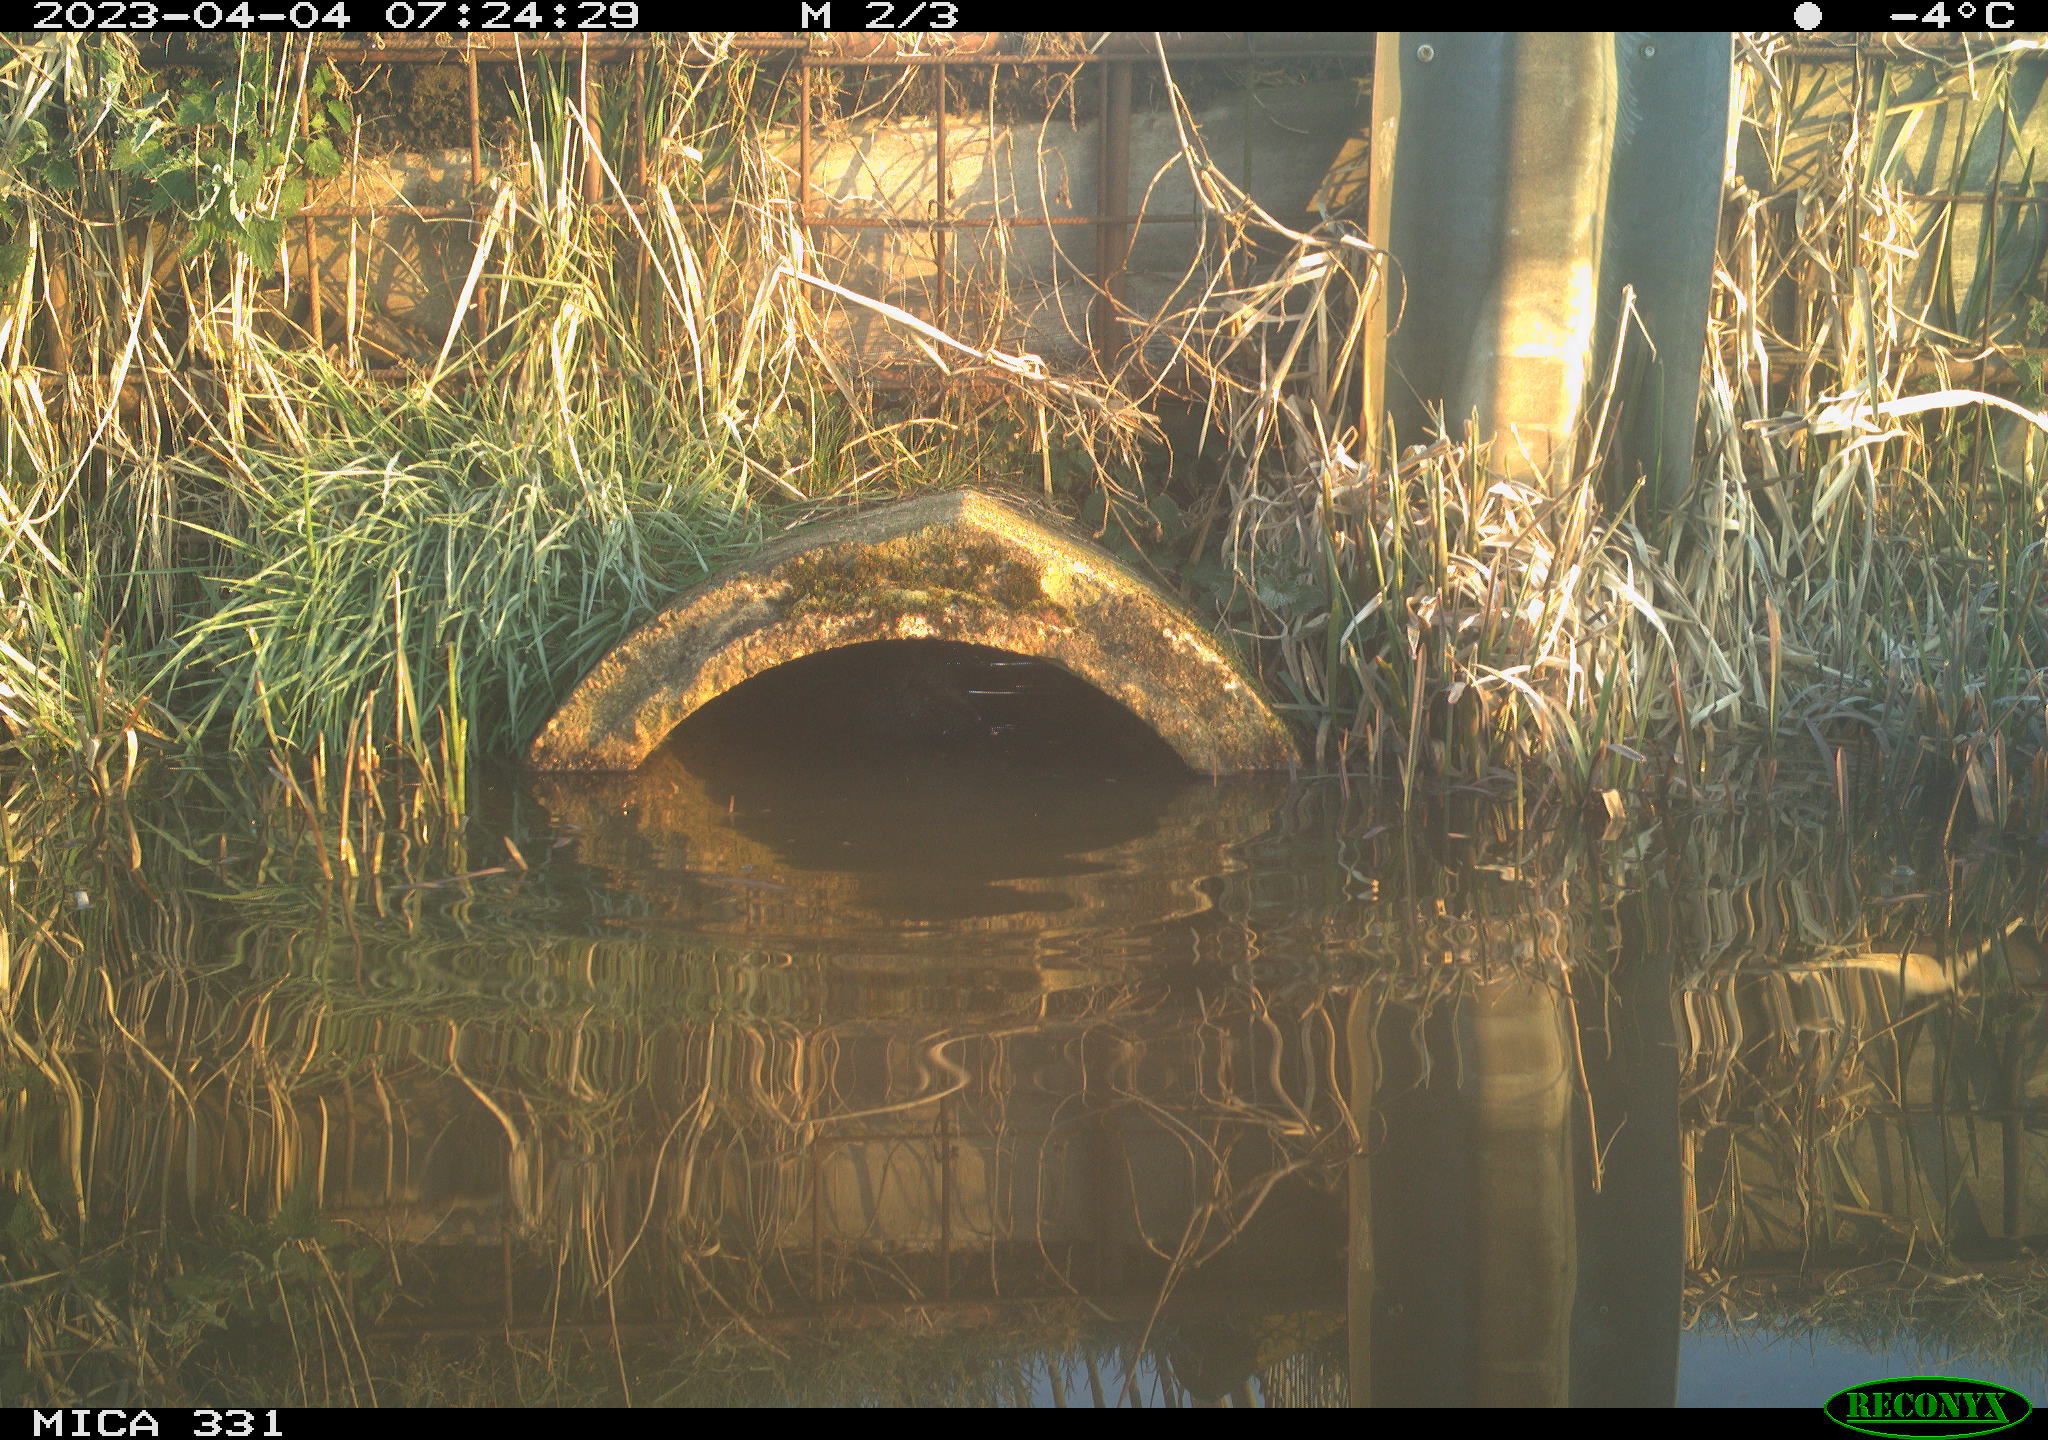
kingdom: Animalia
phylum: Chordata
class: Aves
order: Gruiformes
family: Rallidae
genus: Fulica
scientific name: Fulica atra
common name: Eurasian coot
